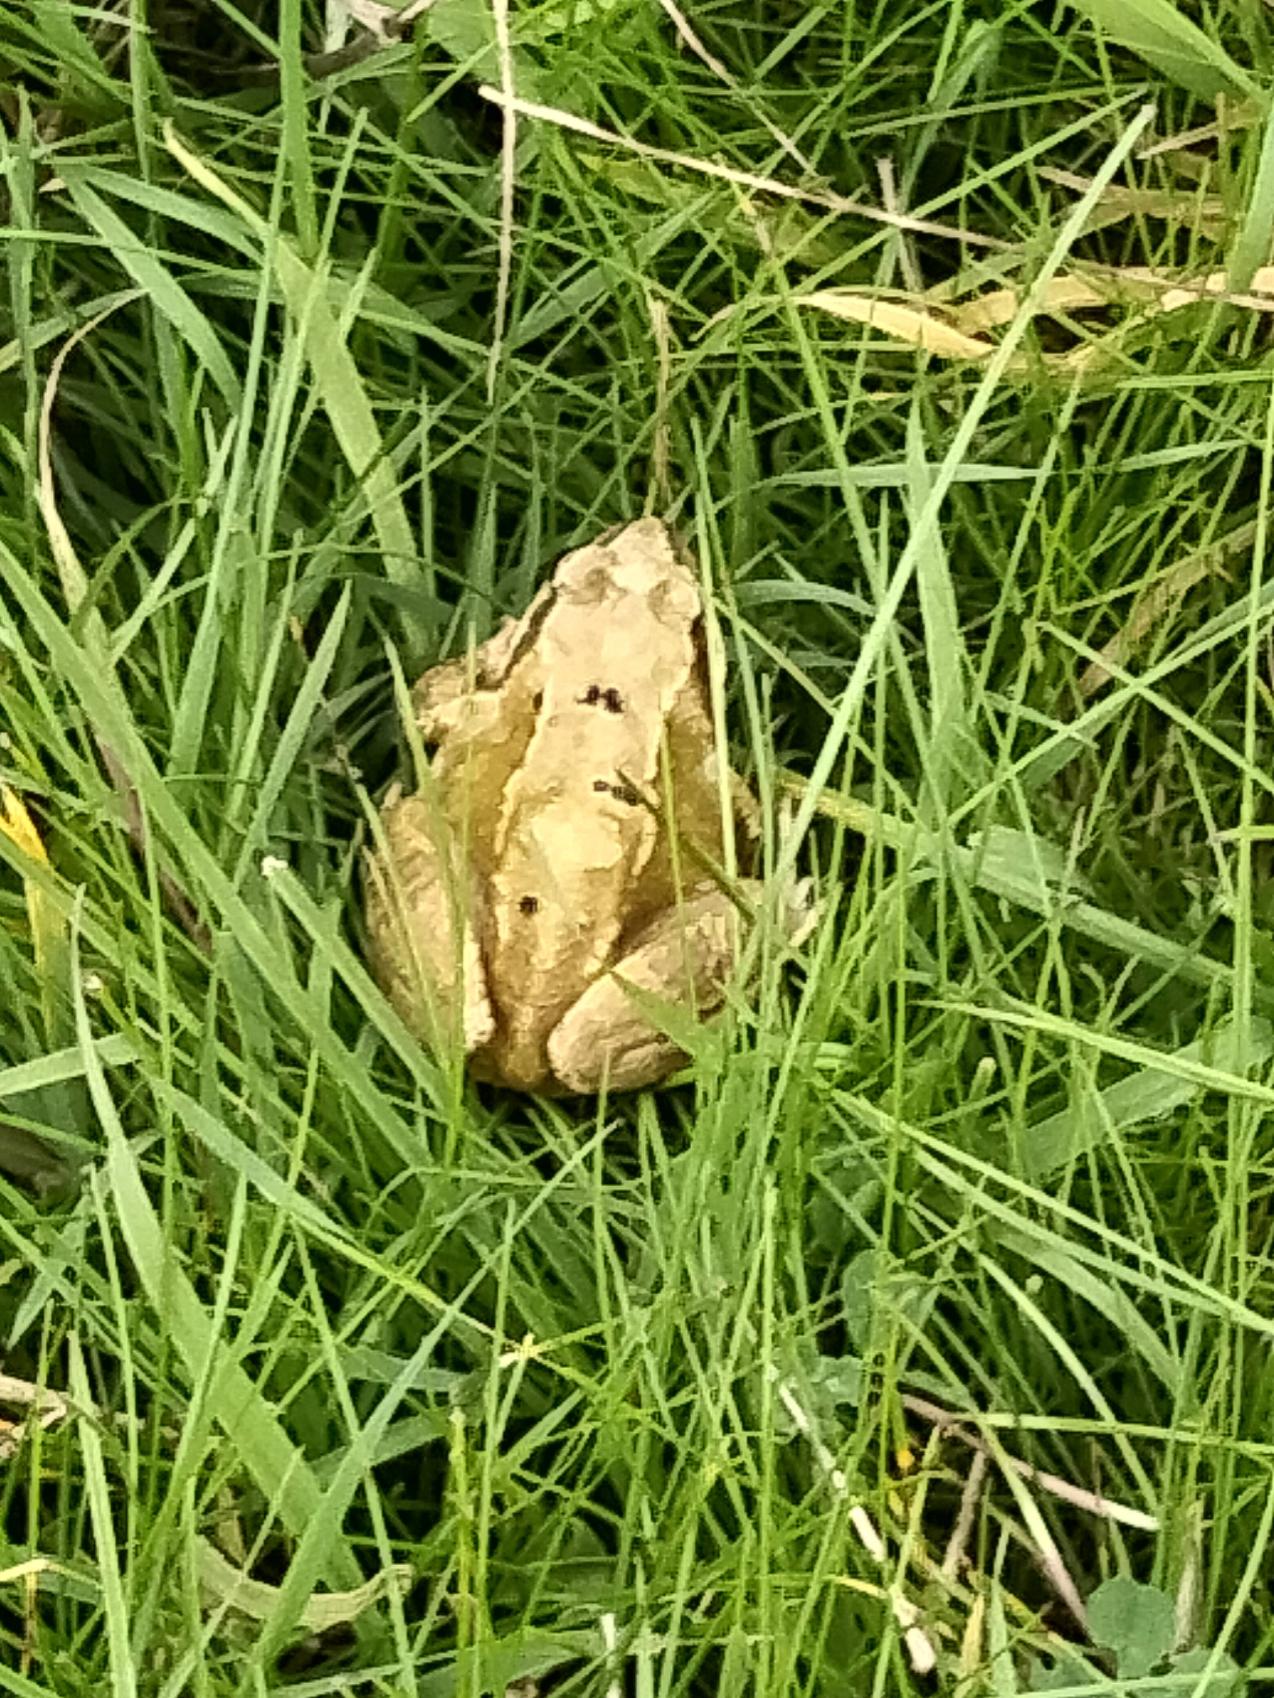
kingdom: Animalia
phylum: Chordata
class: Amphibia
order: Anura
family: Ranidae
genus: Rana
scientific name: Rana temporaria
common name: Butsnudet frø
